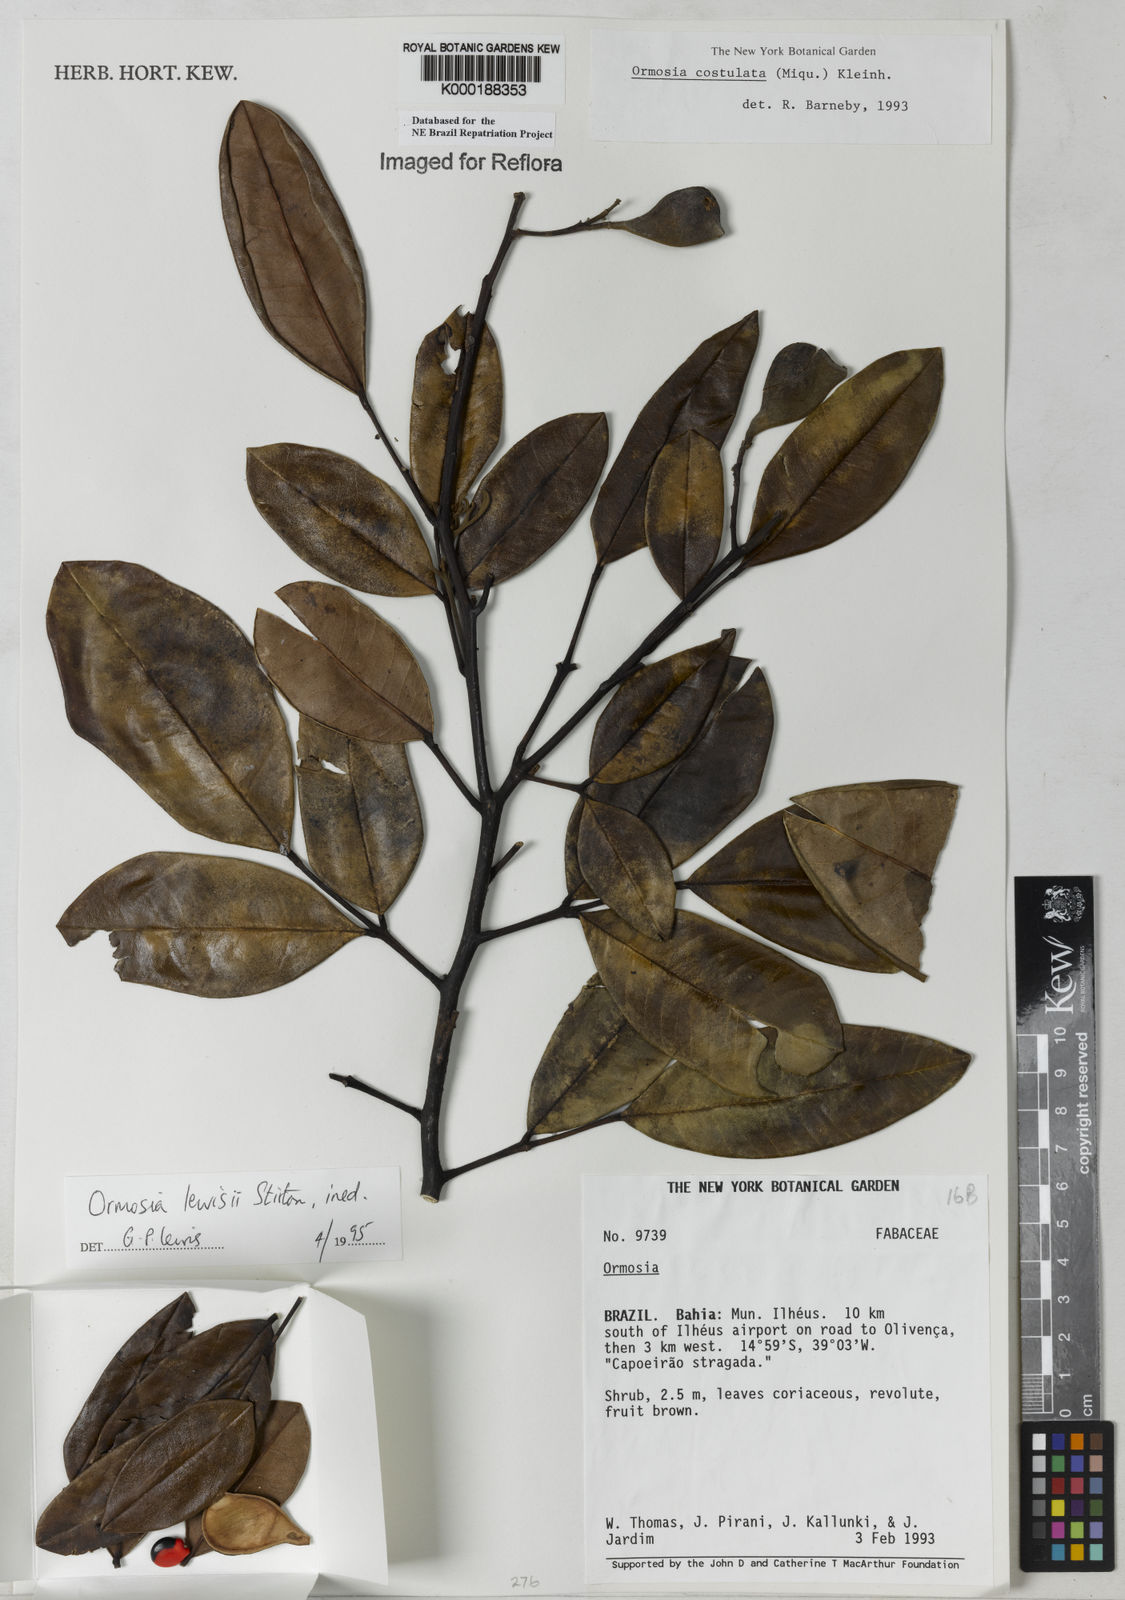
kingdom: Plantae
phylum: Tracheophyta
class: Magnoliopsida
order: Fabales
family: Fabaceae
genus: Ormosia
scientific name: Ormosia
